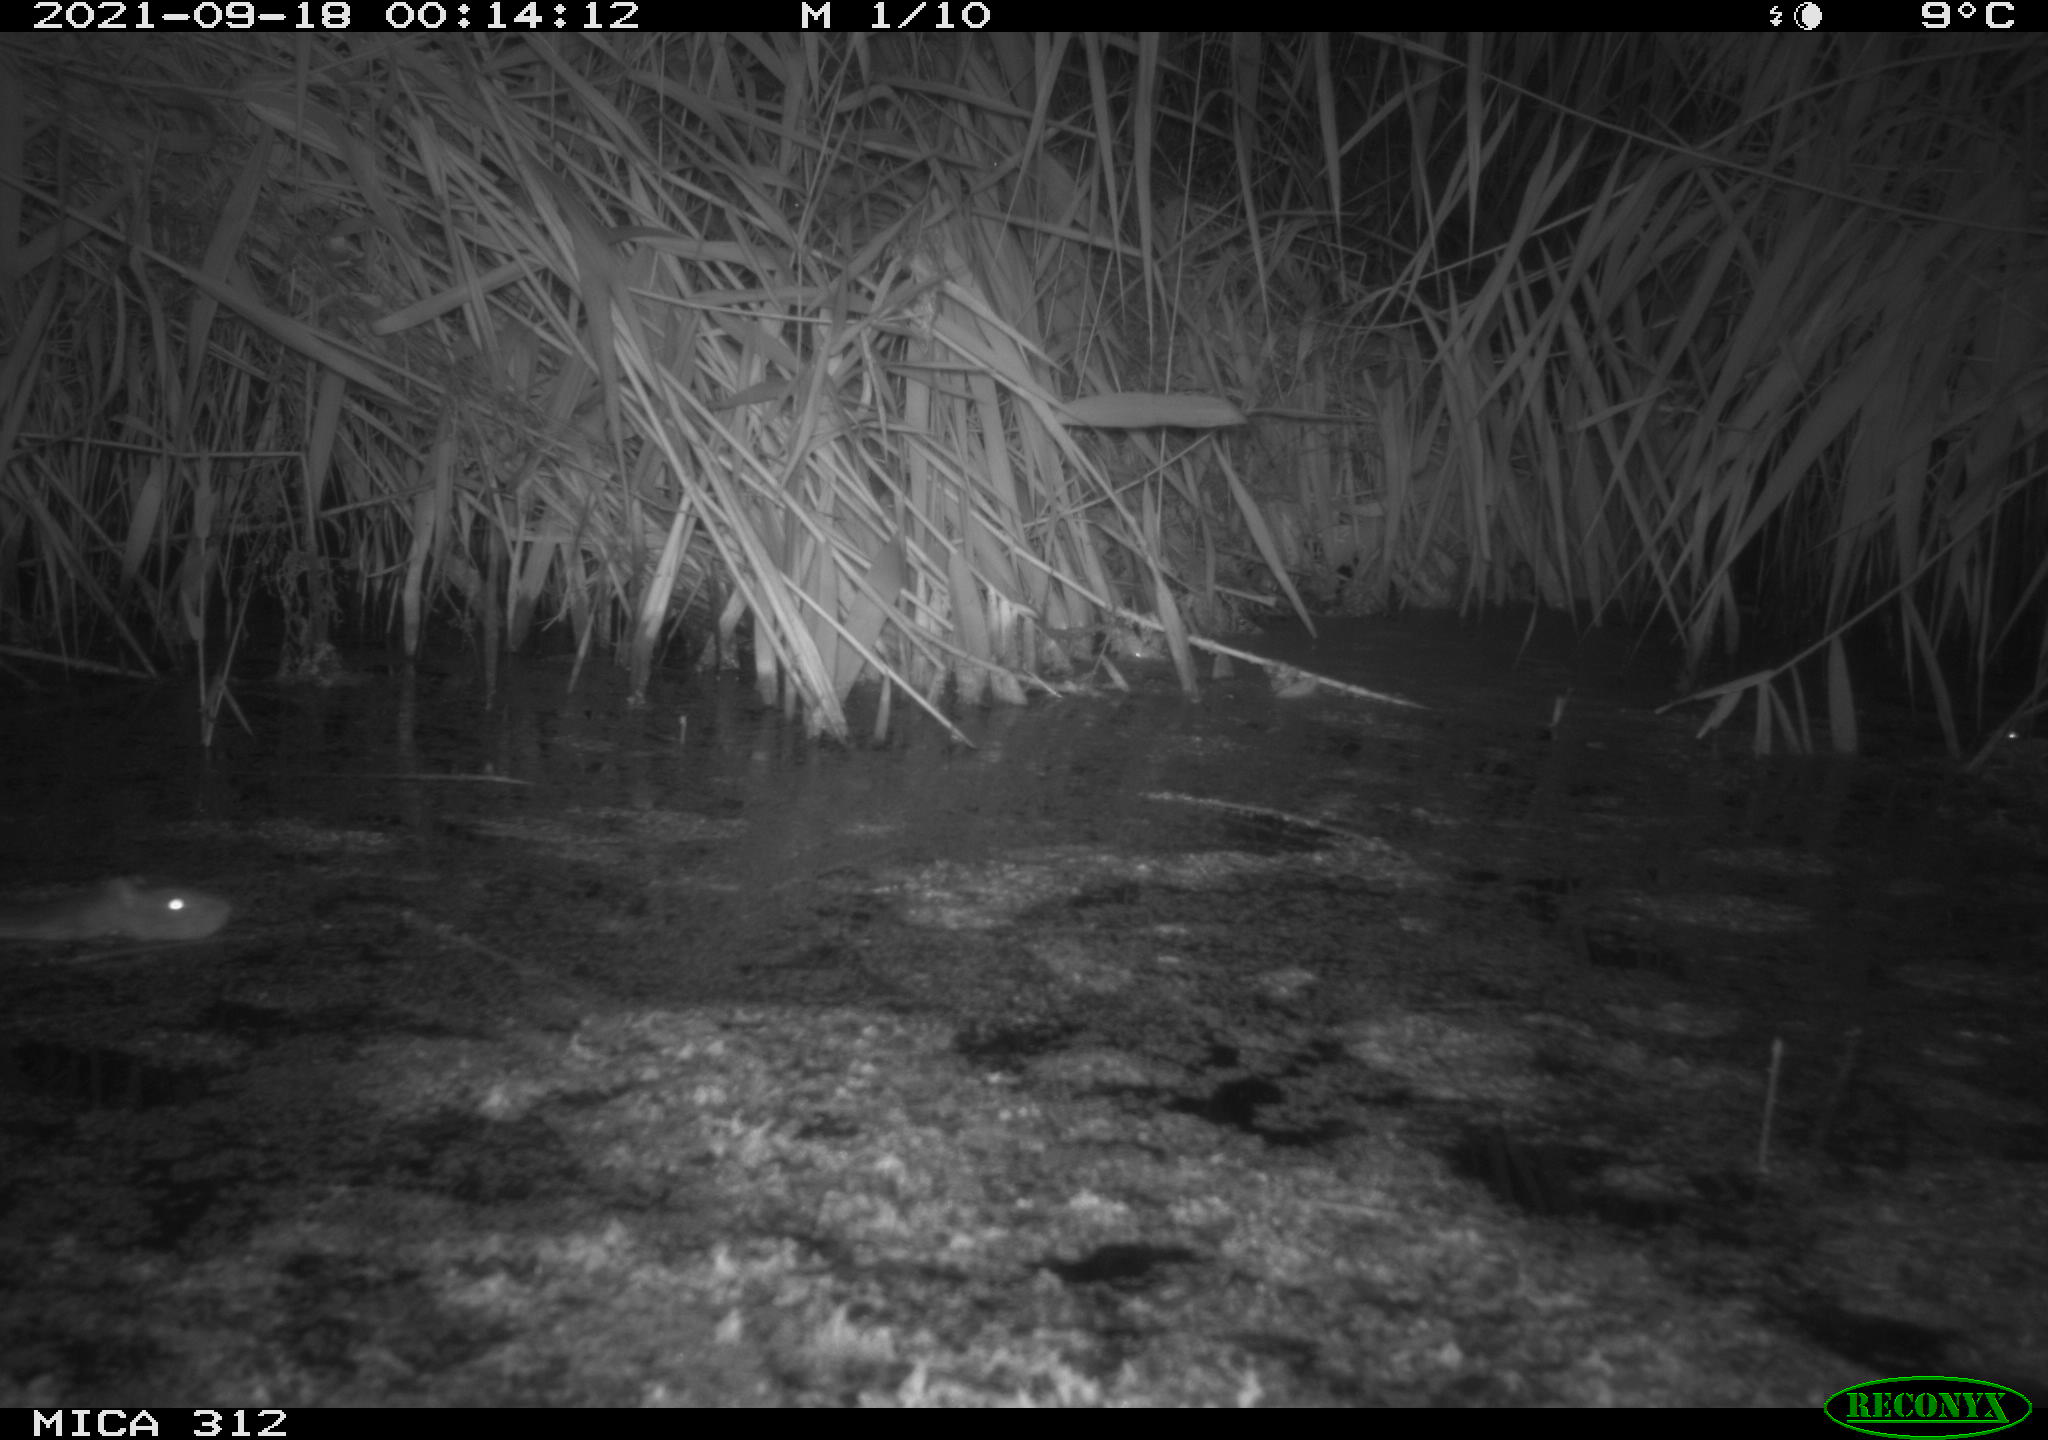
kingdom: Animalia
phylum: Chordata
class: Mammalia
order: Rodentia
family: Muridae
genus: Rattus
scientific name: Rattus norvegicus
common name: Brown rat
